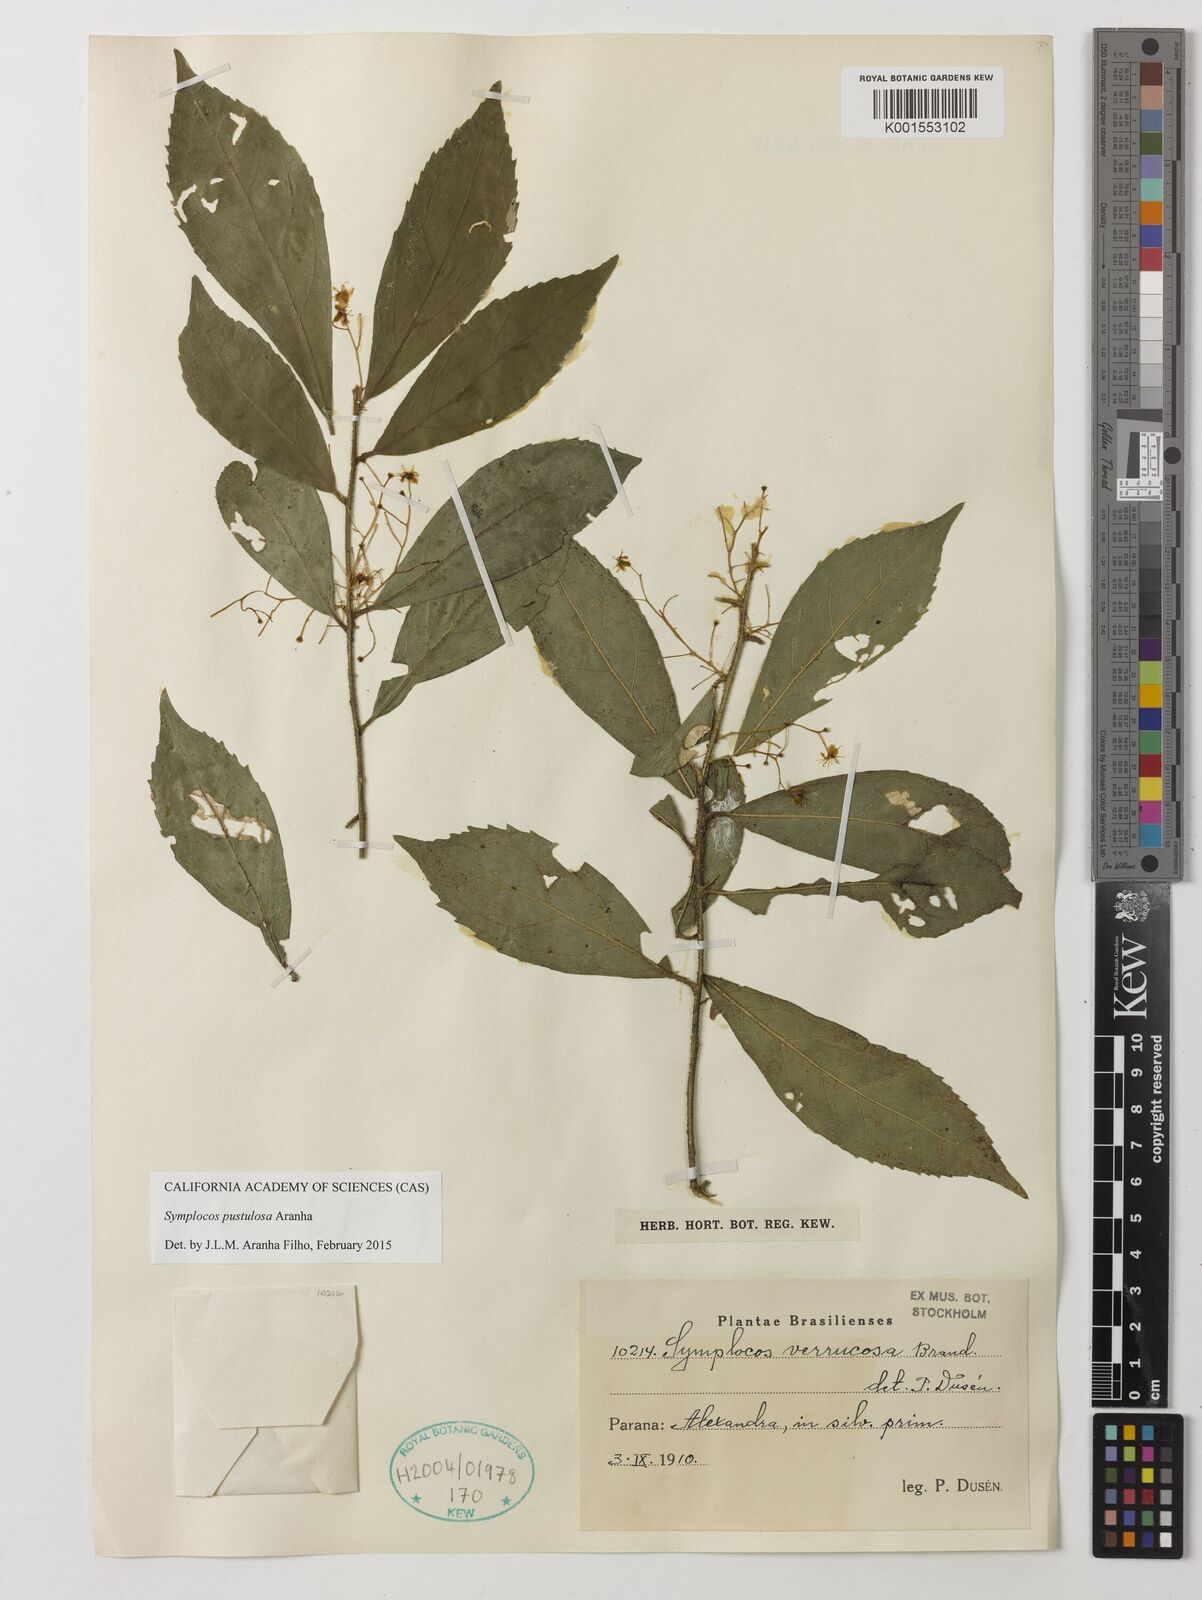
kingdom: Plantae
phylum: Tracheophyta
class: Magnoliopsida
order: Ericales
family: Symplocaceae
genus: Symplocos
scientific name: Symplocos pustulosa
